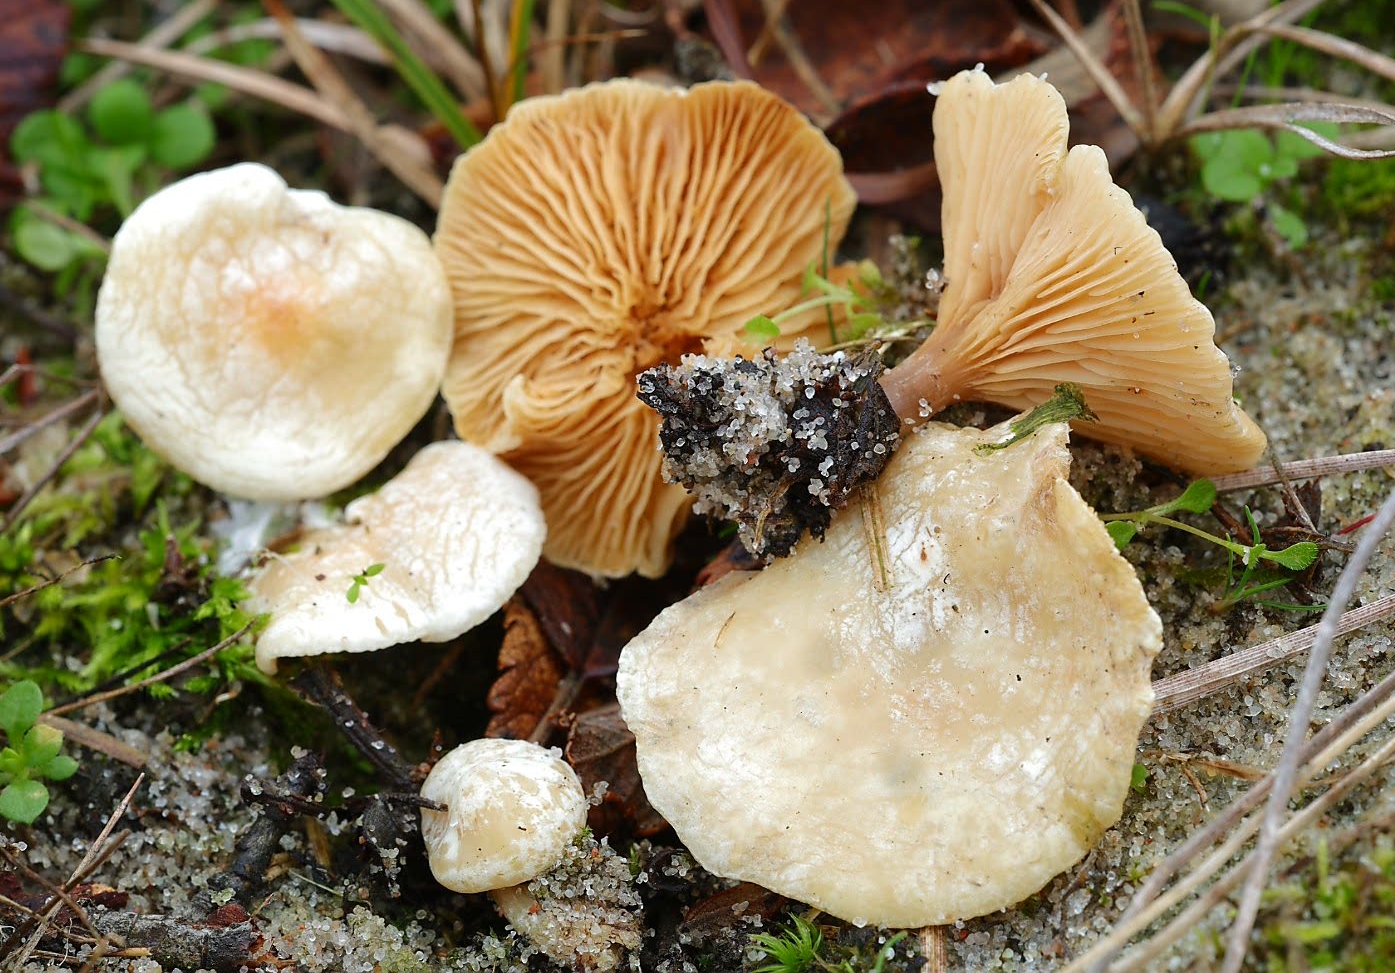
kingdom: Fungi
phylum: Basidiomycota
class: Agaricomycetes
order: Agaricales
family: Entolomataceae
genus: Clitocella
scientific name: Clitocella
